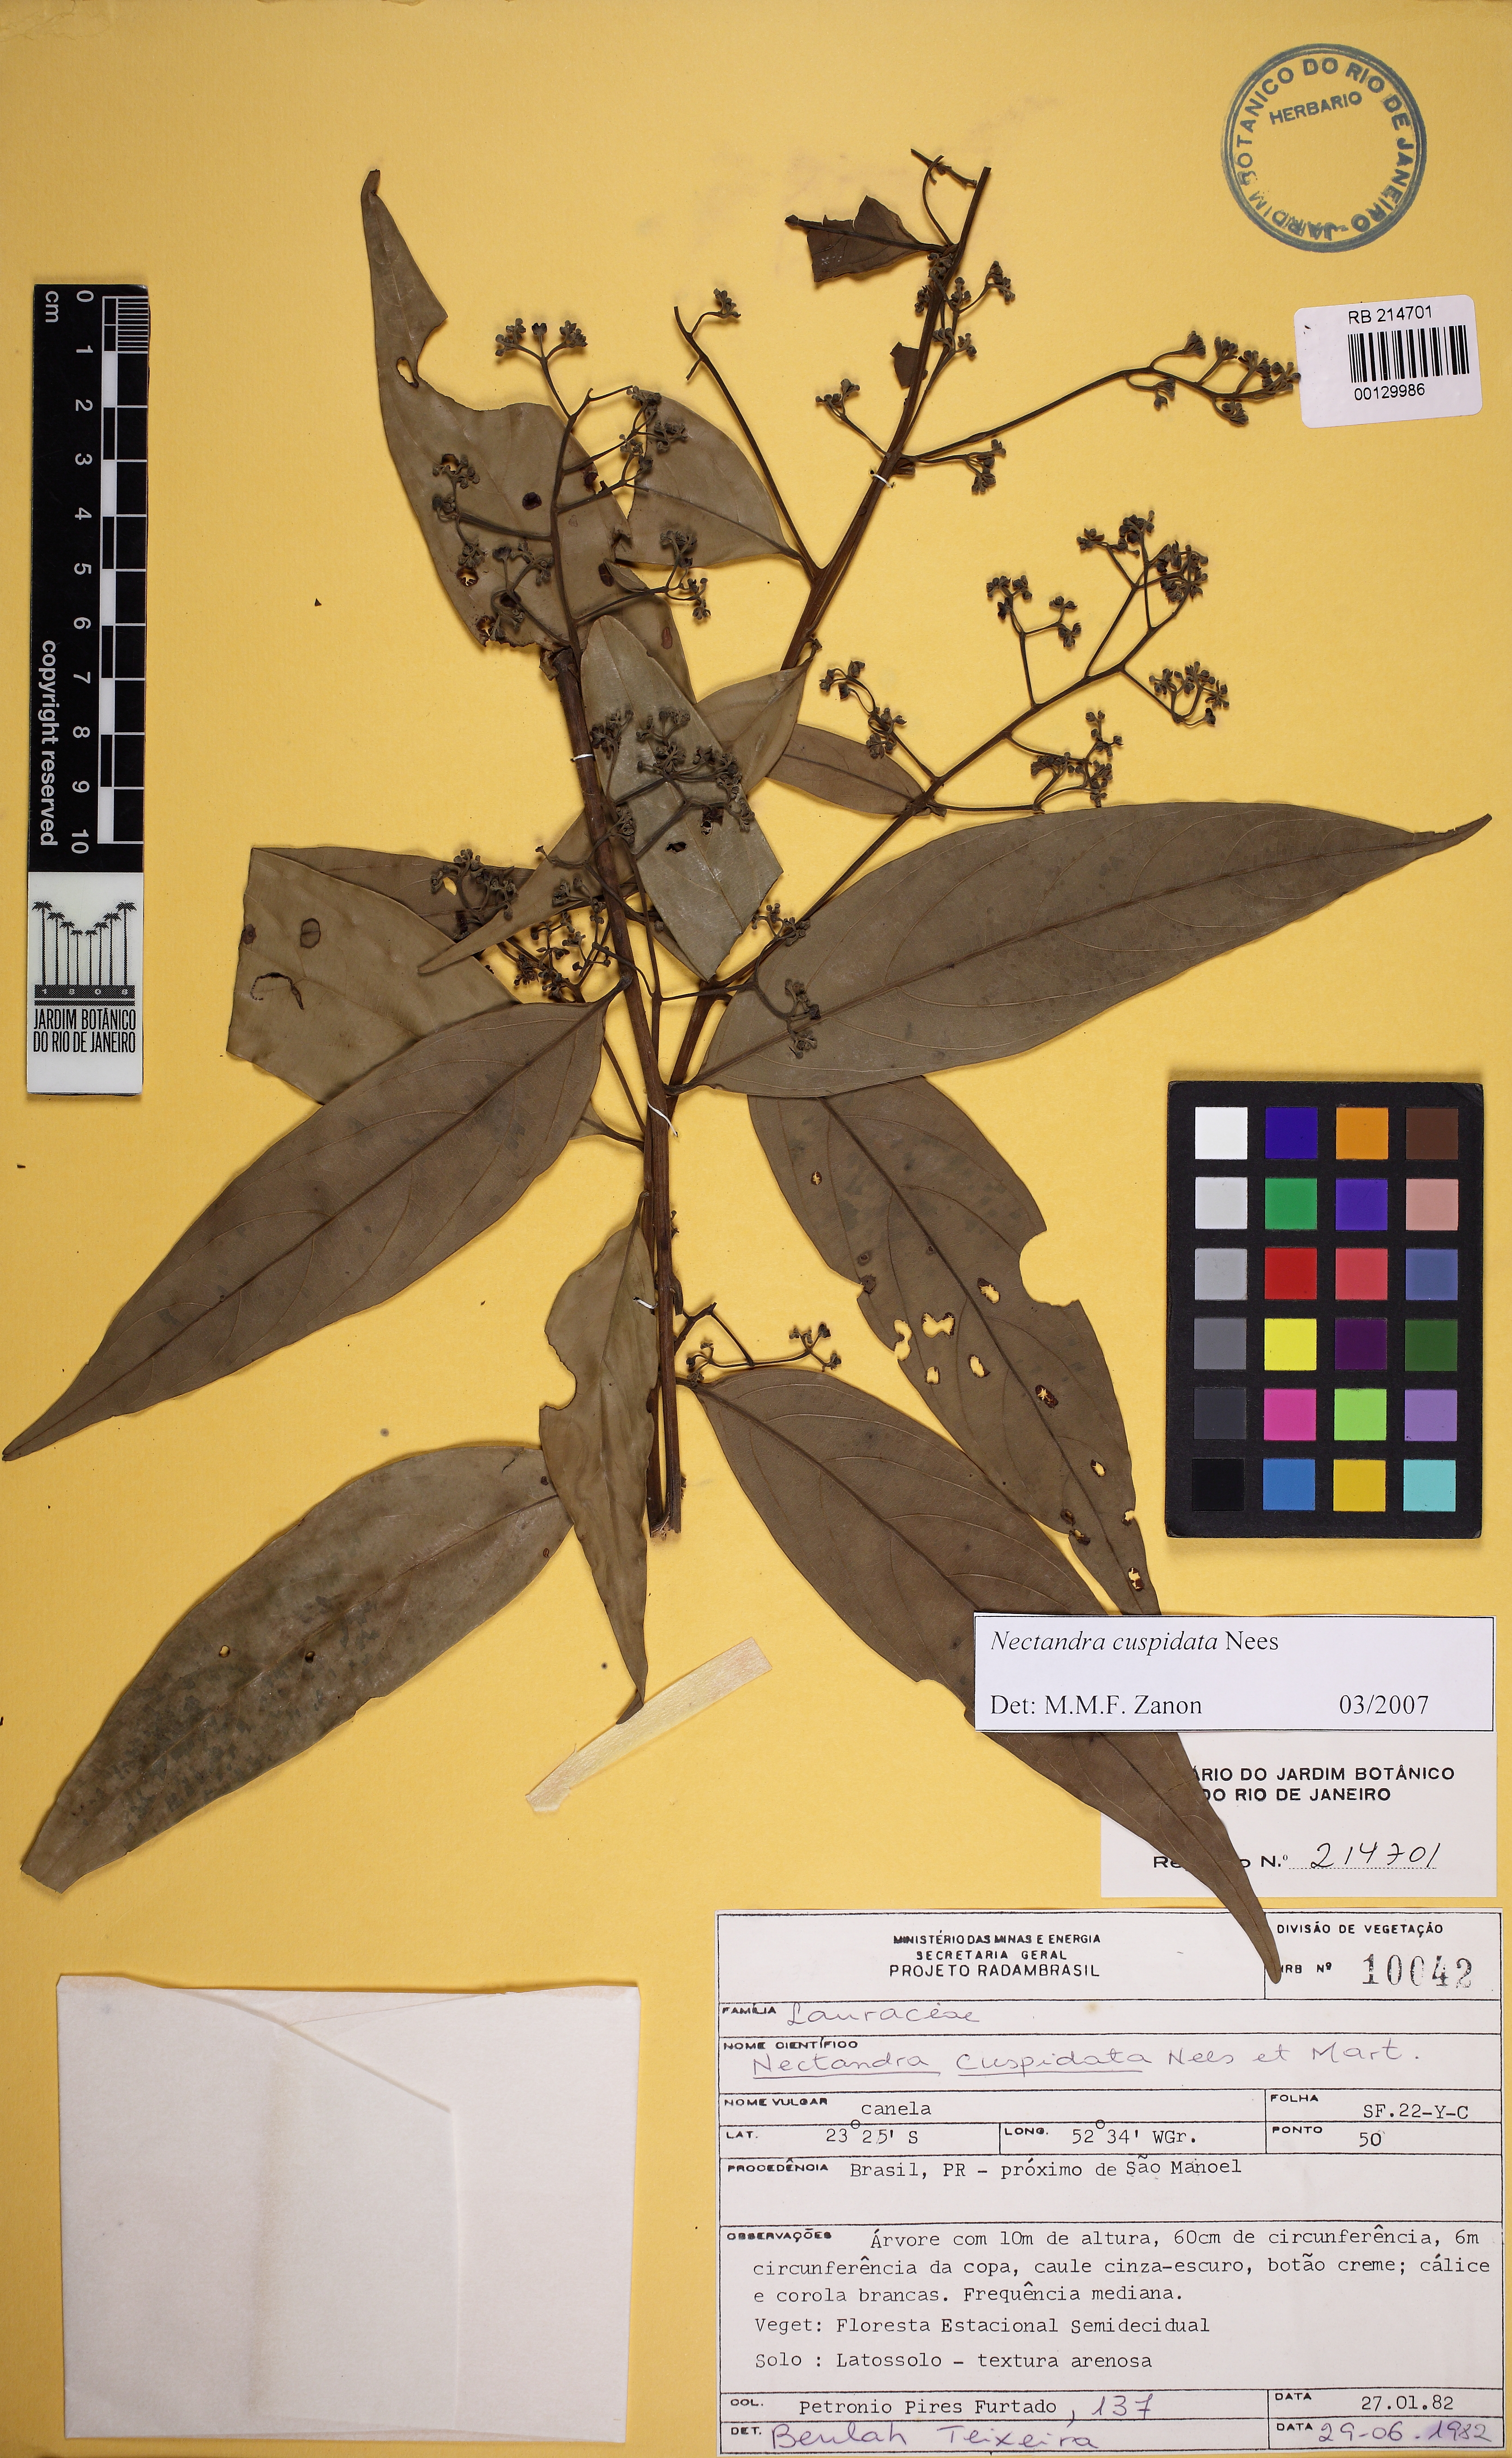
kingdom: Plantae
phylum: Tracheophyta
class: Magnoliopsida
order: Laurales
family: Lauraceae
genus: Nectandra
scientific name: Nectandra cuspidata
